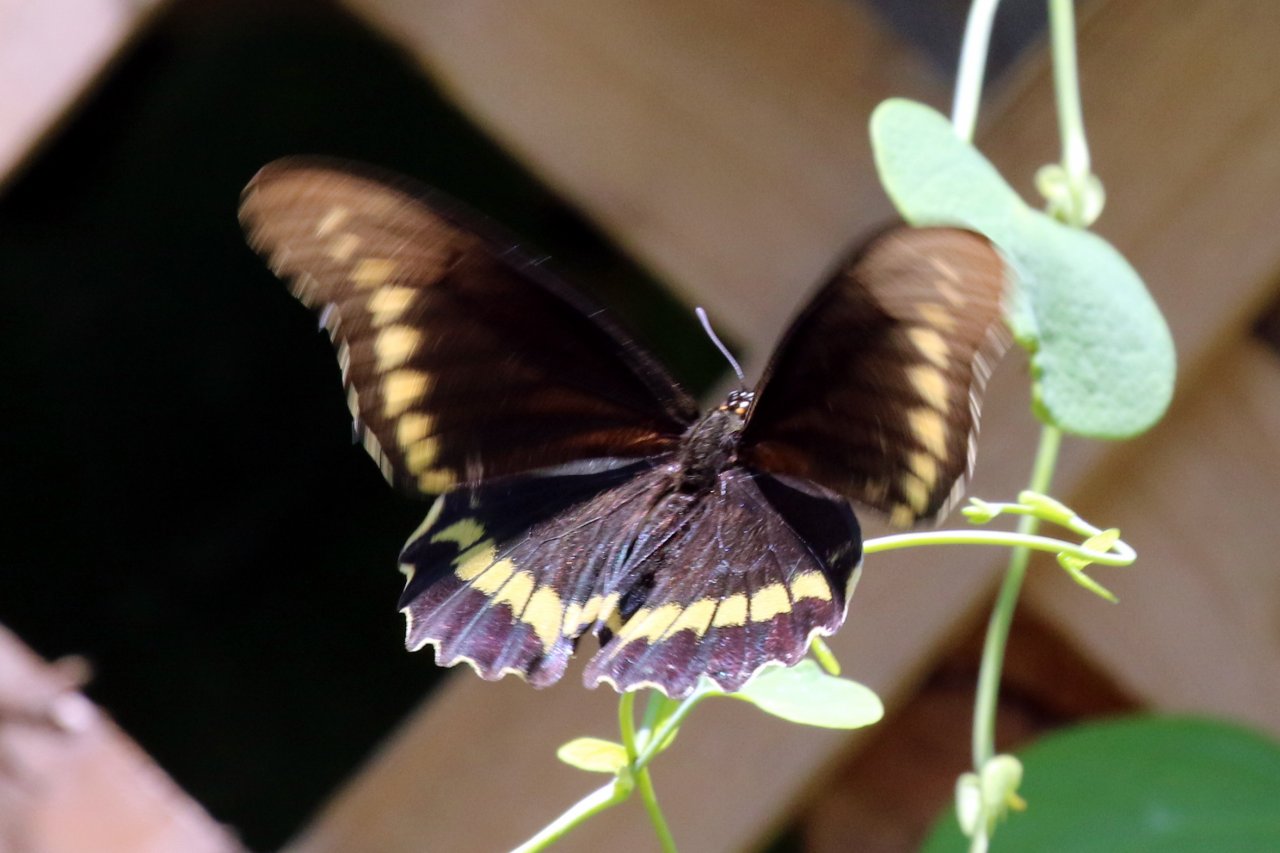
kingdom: Animalia
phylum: Arthropoda
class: Insecta
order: Lepidoptera
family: Papilionidae
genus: Battus
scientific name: Battus polydamas
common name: Polydamas Swallowtail
